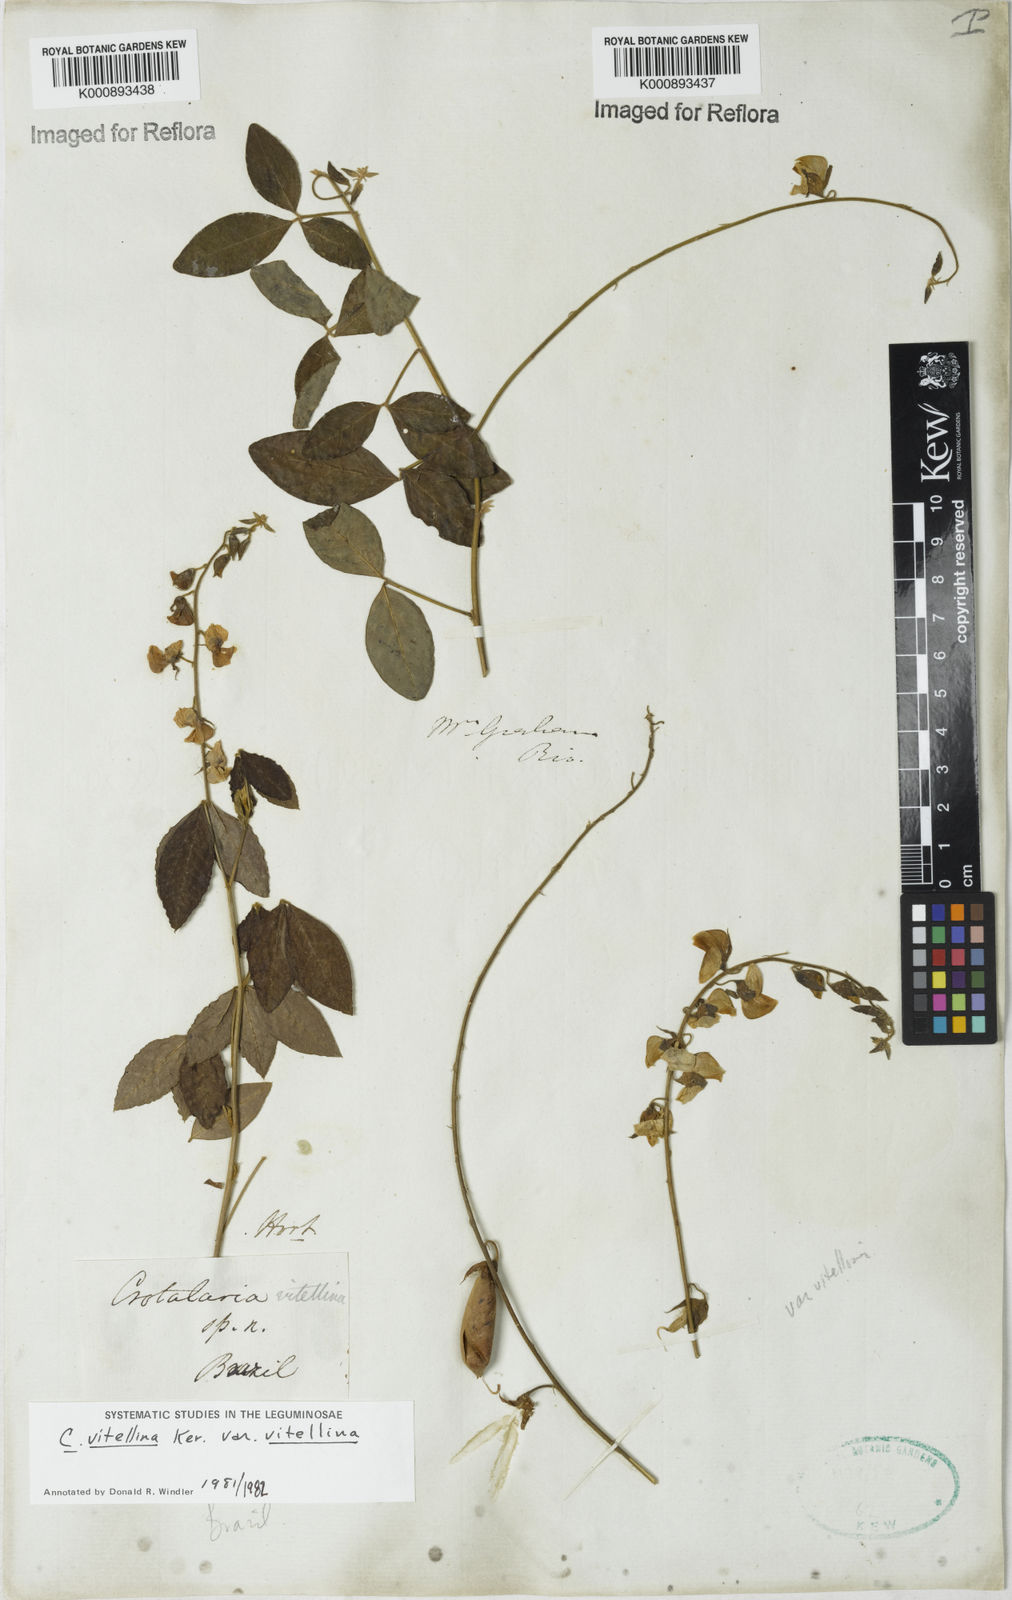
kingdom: Plantae
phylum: Tracheophyta
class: Magnoliopsida
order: Fabales
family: Fabaceae
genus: Crotalaria
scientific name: Crotalaria vitellina
